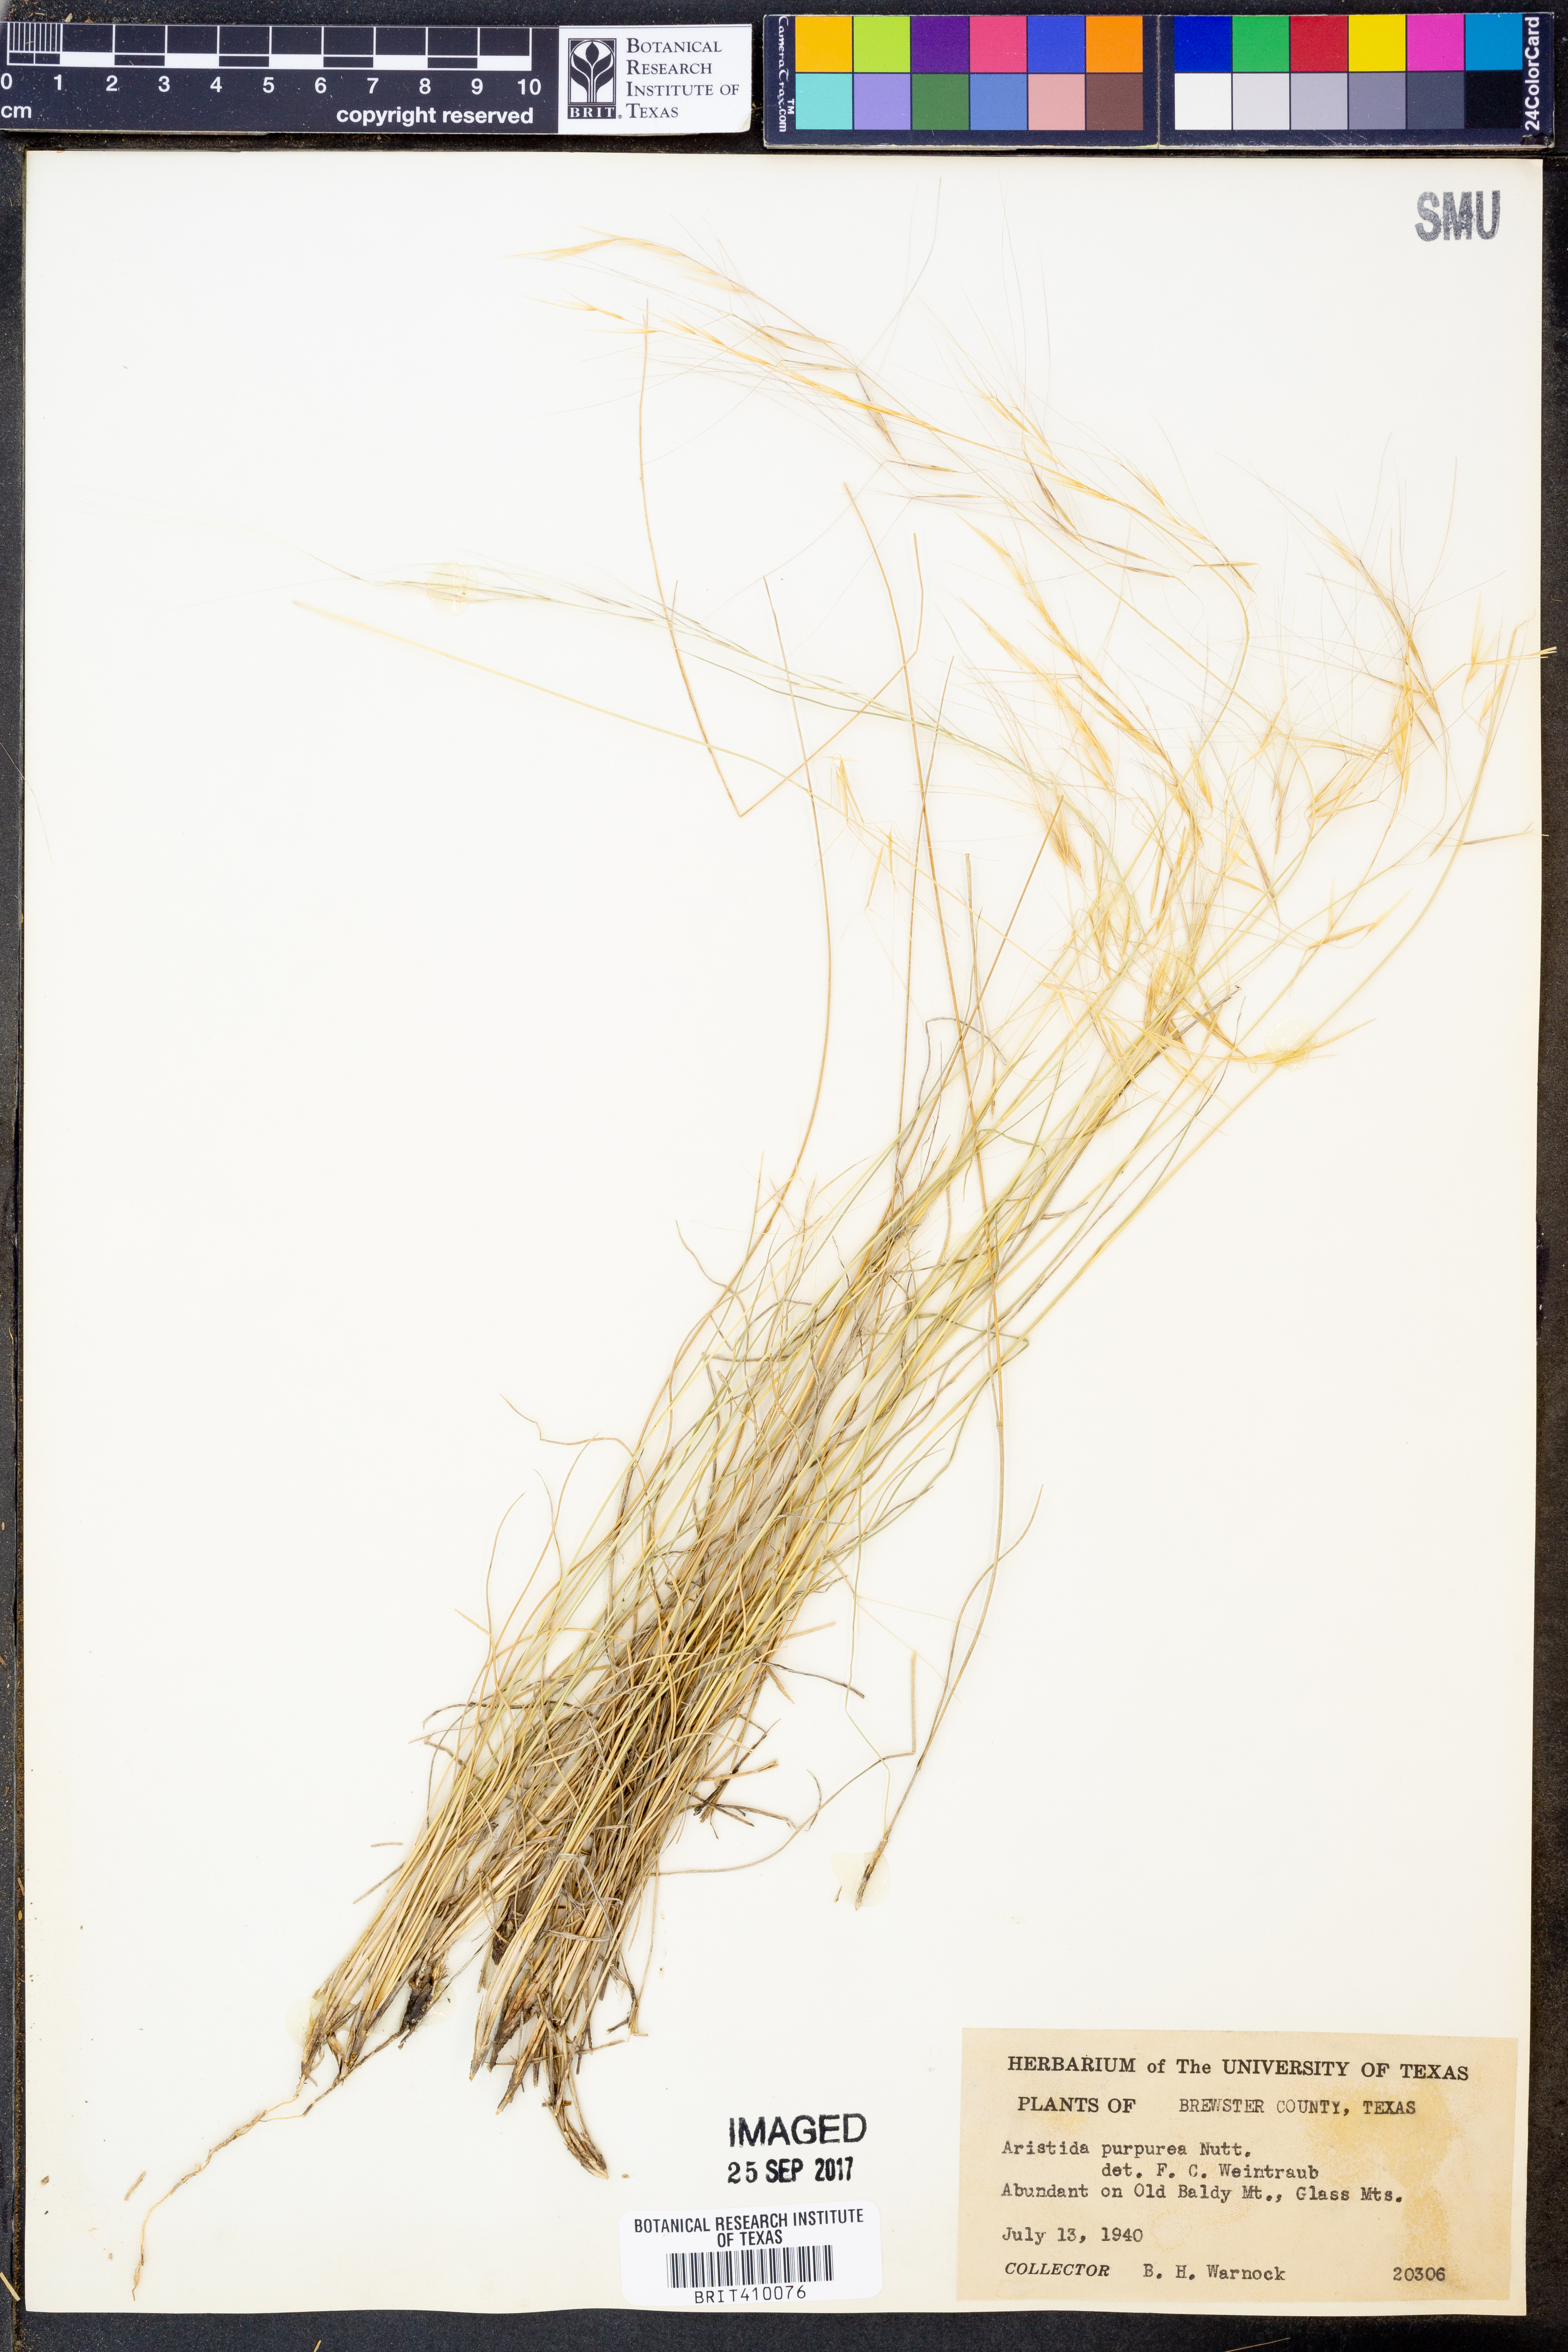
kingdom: Plantae
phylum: Tracheophyta
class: Liliopsida
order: Poales
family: Poaceae
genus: Aristida
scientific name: Aristida purpurea
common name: Purple threeawn
